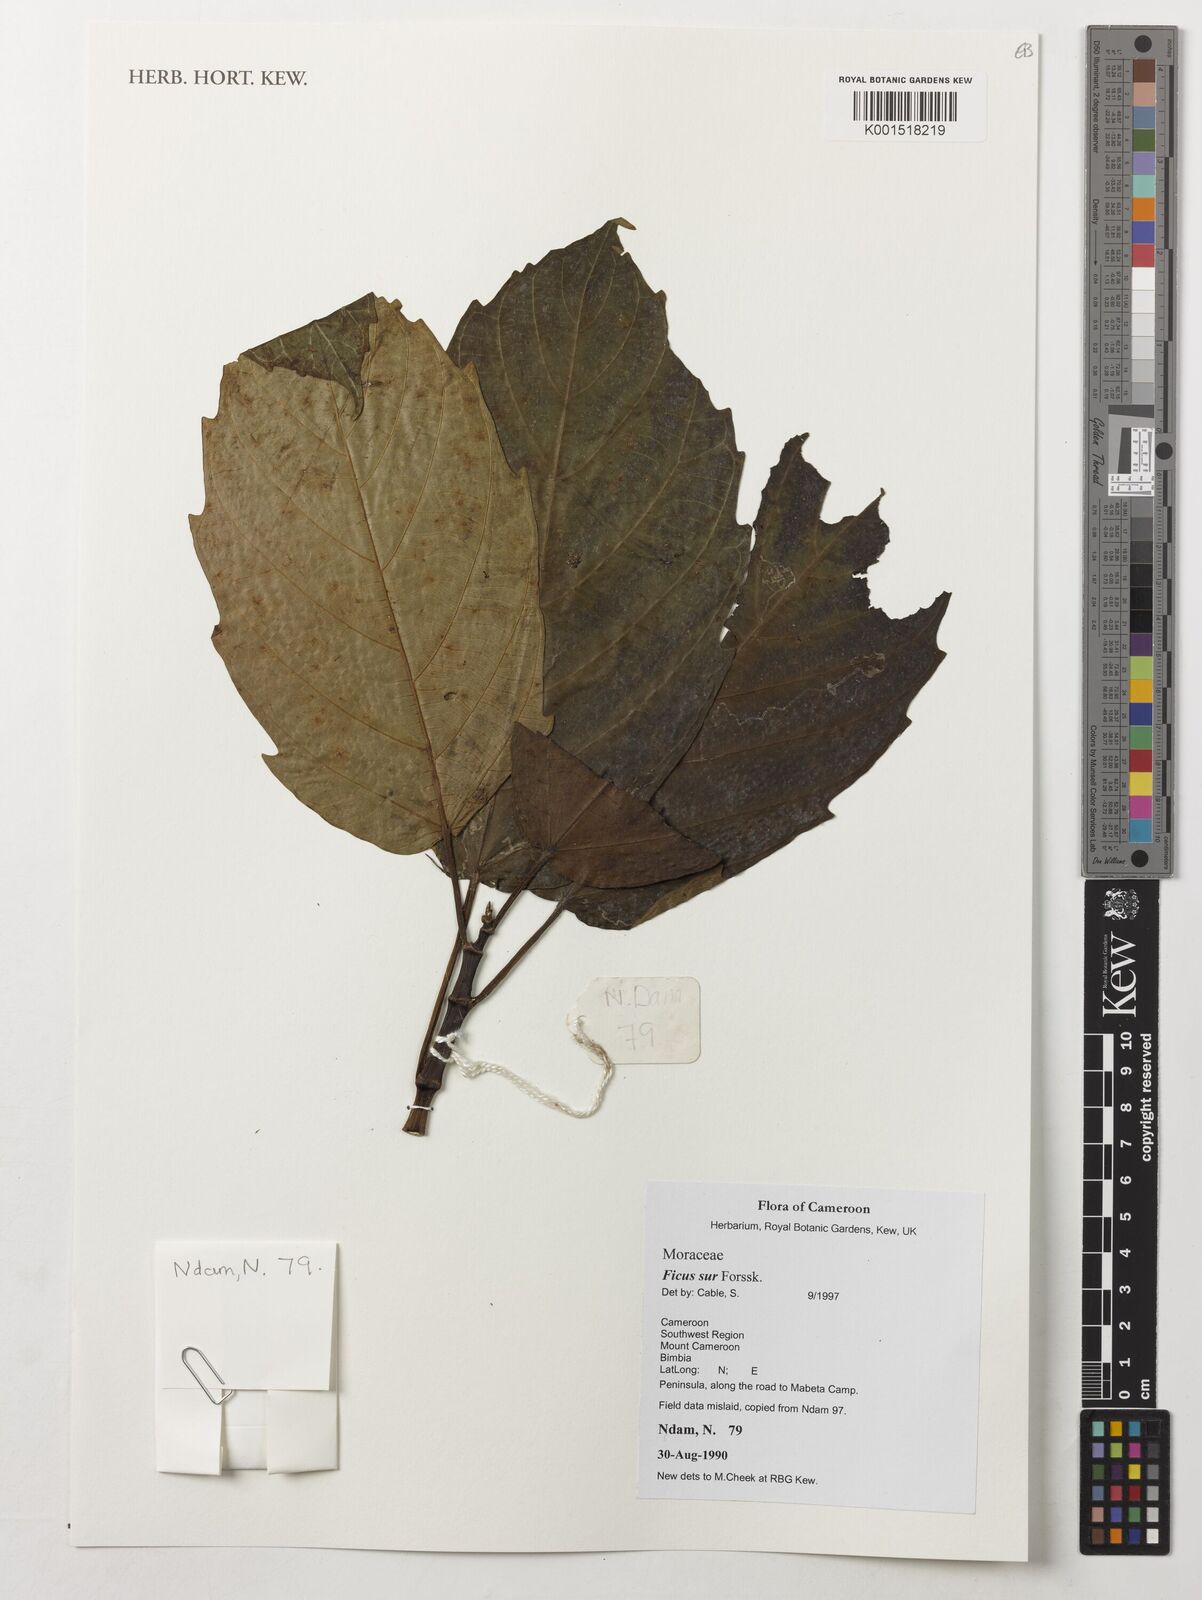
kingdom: Plantae
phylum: Tracheophyta
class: Magnoliopsida
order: Rosales
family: Moraceae
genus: Ficus
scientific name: Ficus sur
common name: Cape fig
